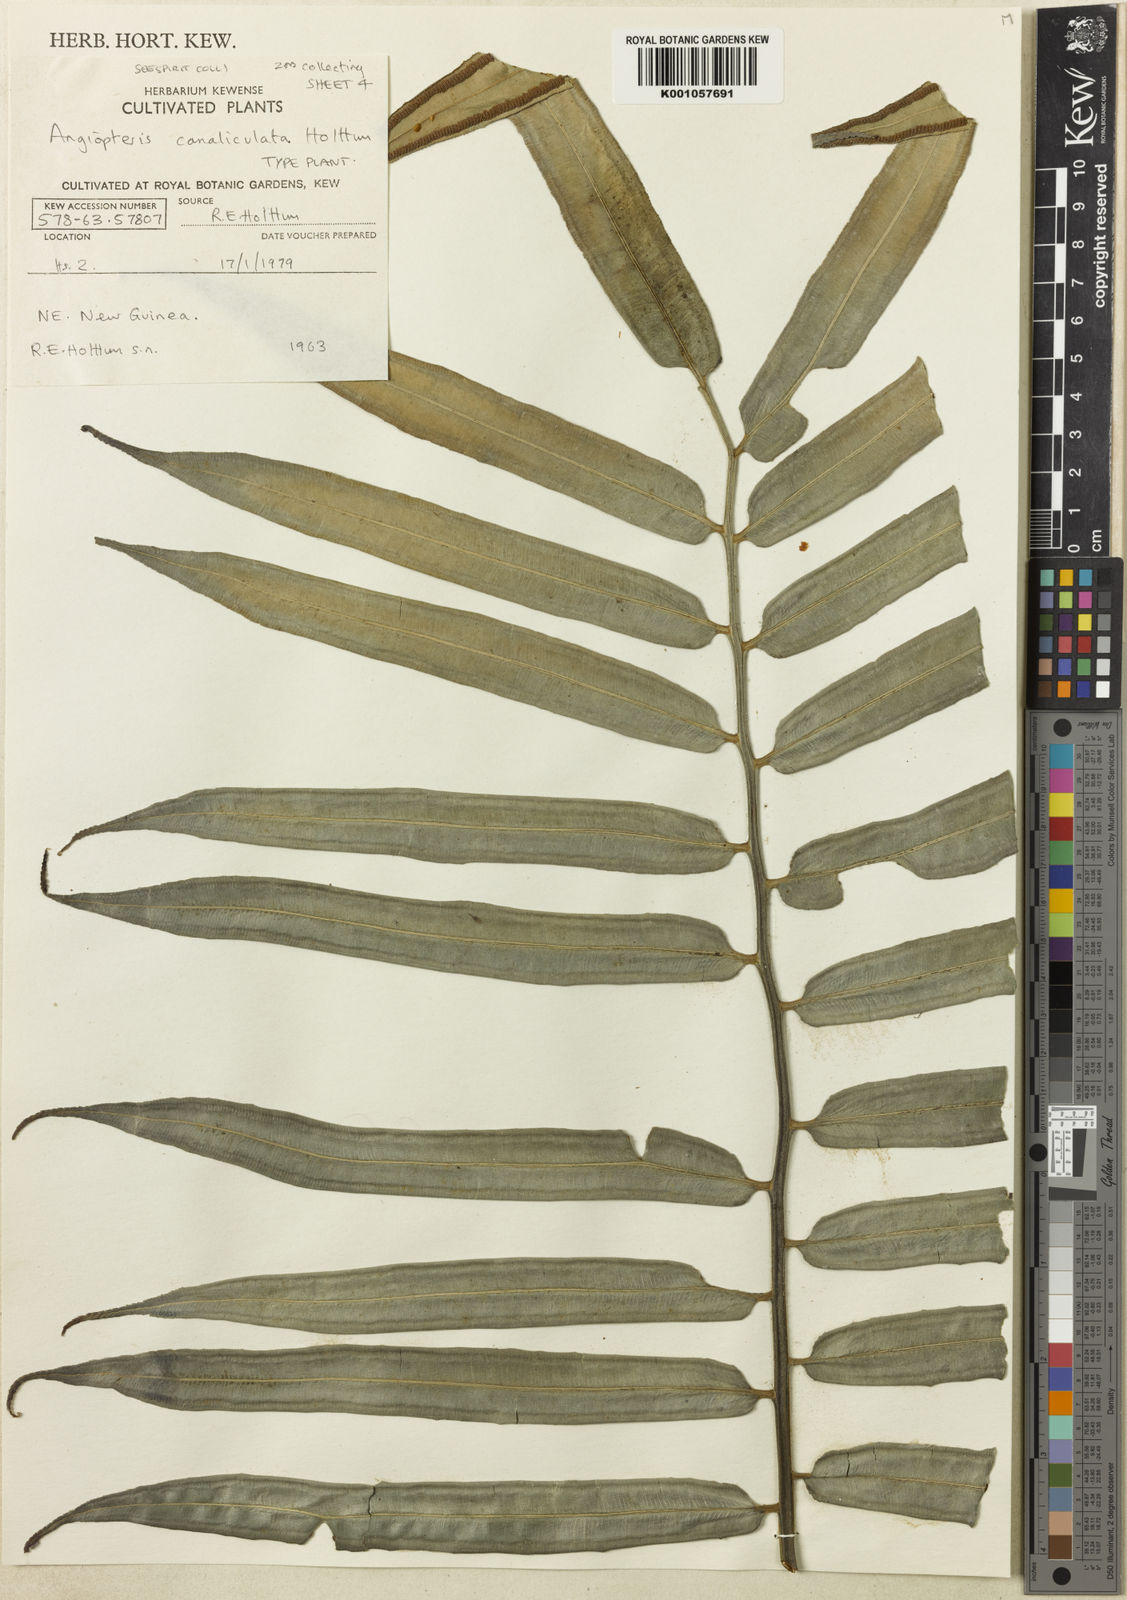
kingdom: Plantae
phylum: Tracheophyta
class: Polypodiopsida
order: Marattiales
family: Marattiaceae
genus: Angiopteris
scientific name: Angiopteris evecta
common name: Mule's-foot fern
